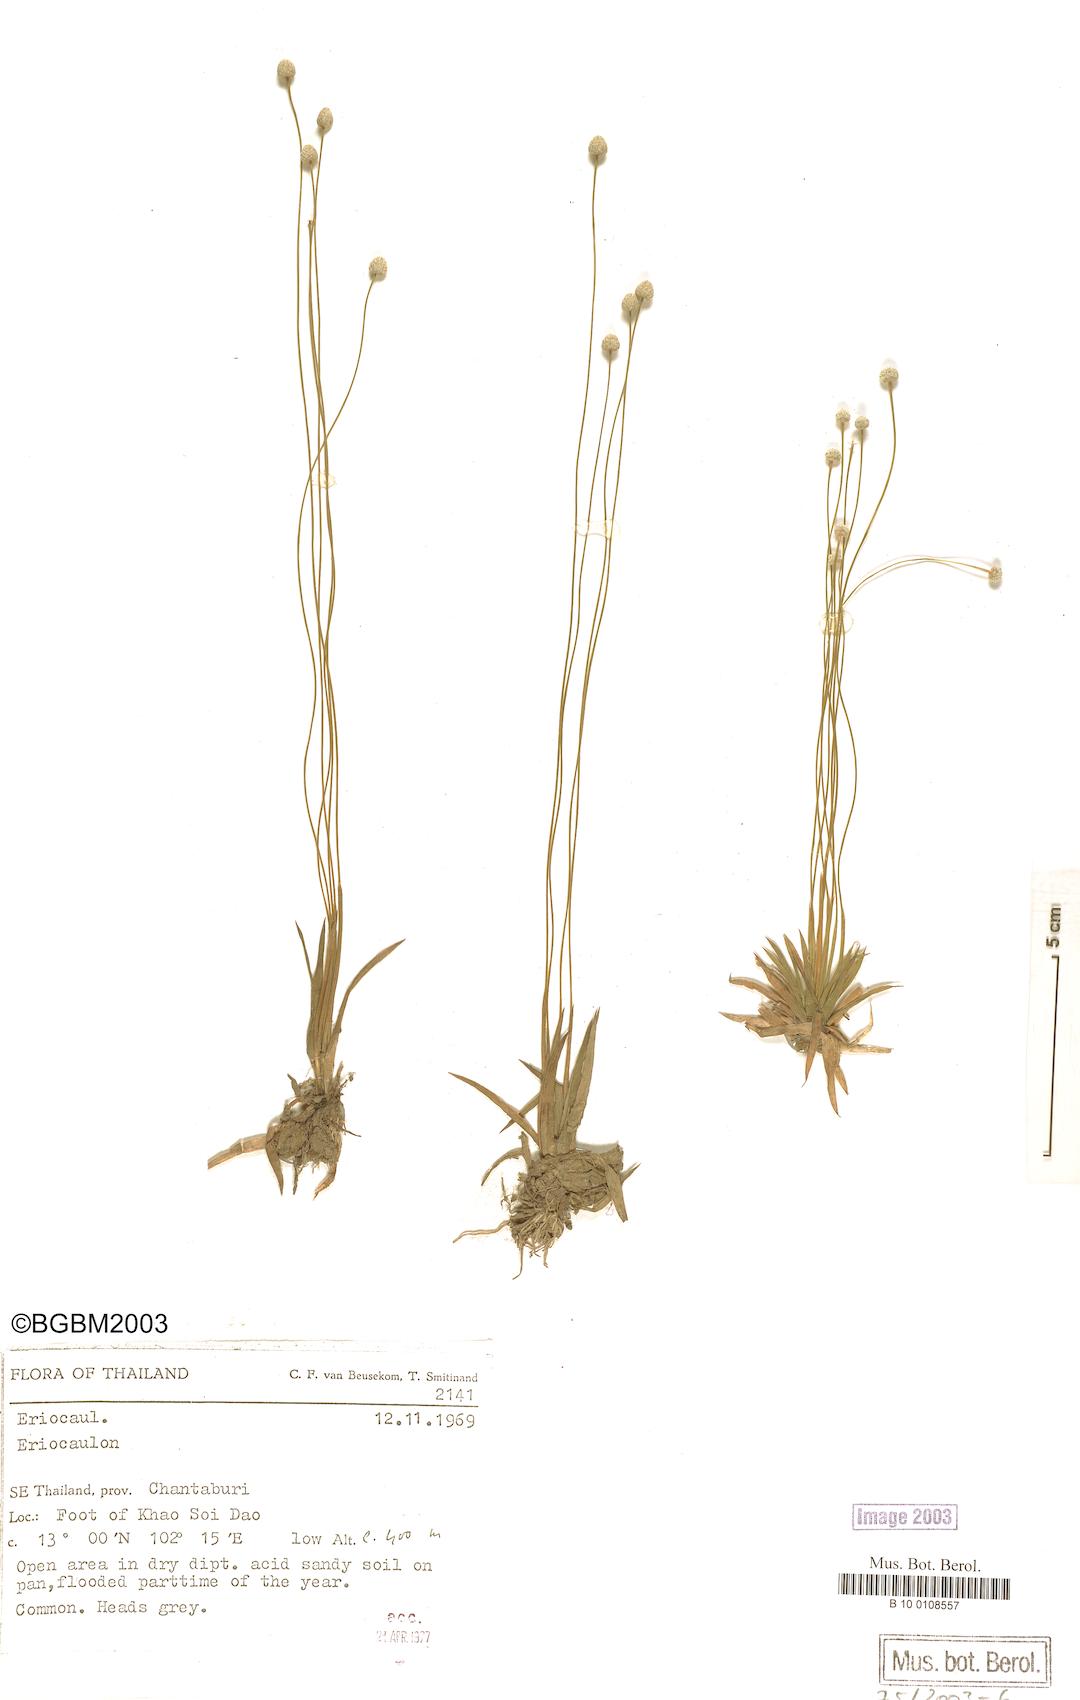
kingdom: Plantae
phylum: Tracheophyta
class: Liliopsida
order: Poales
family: Eriocaulaceae
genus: Eriocaulon
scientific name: Eriocaulon
